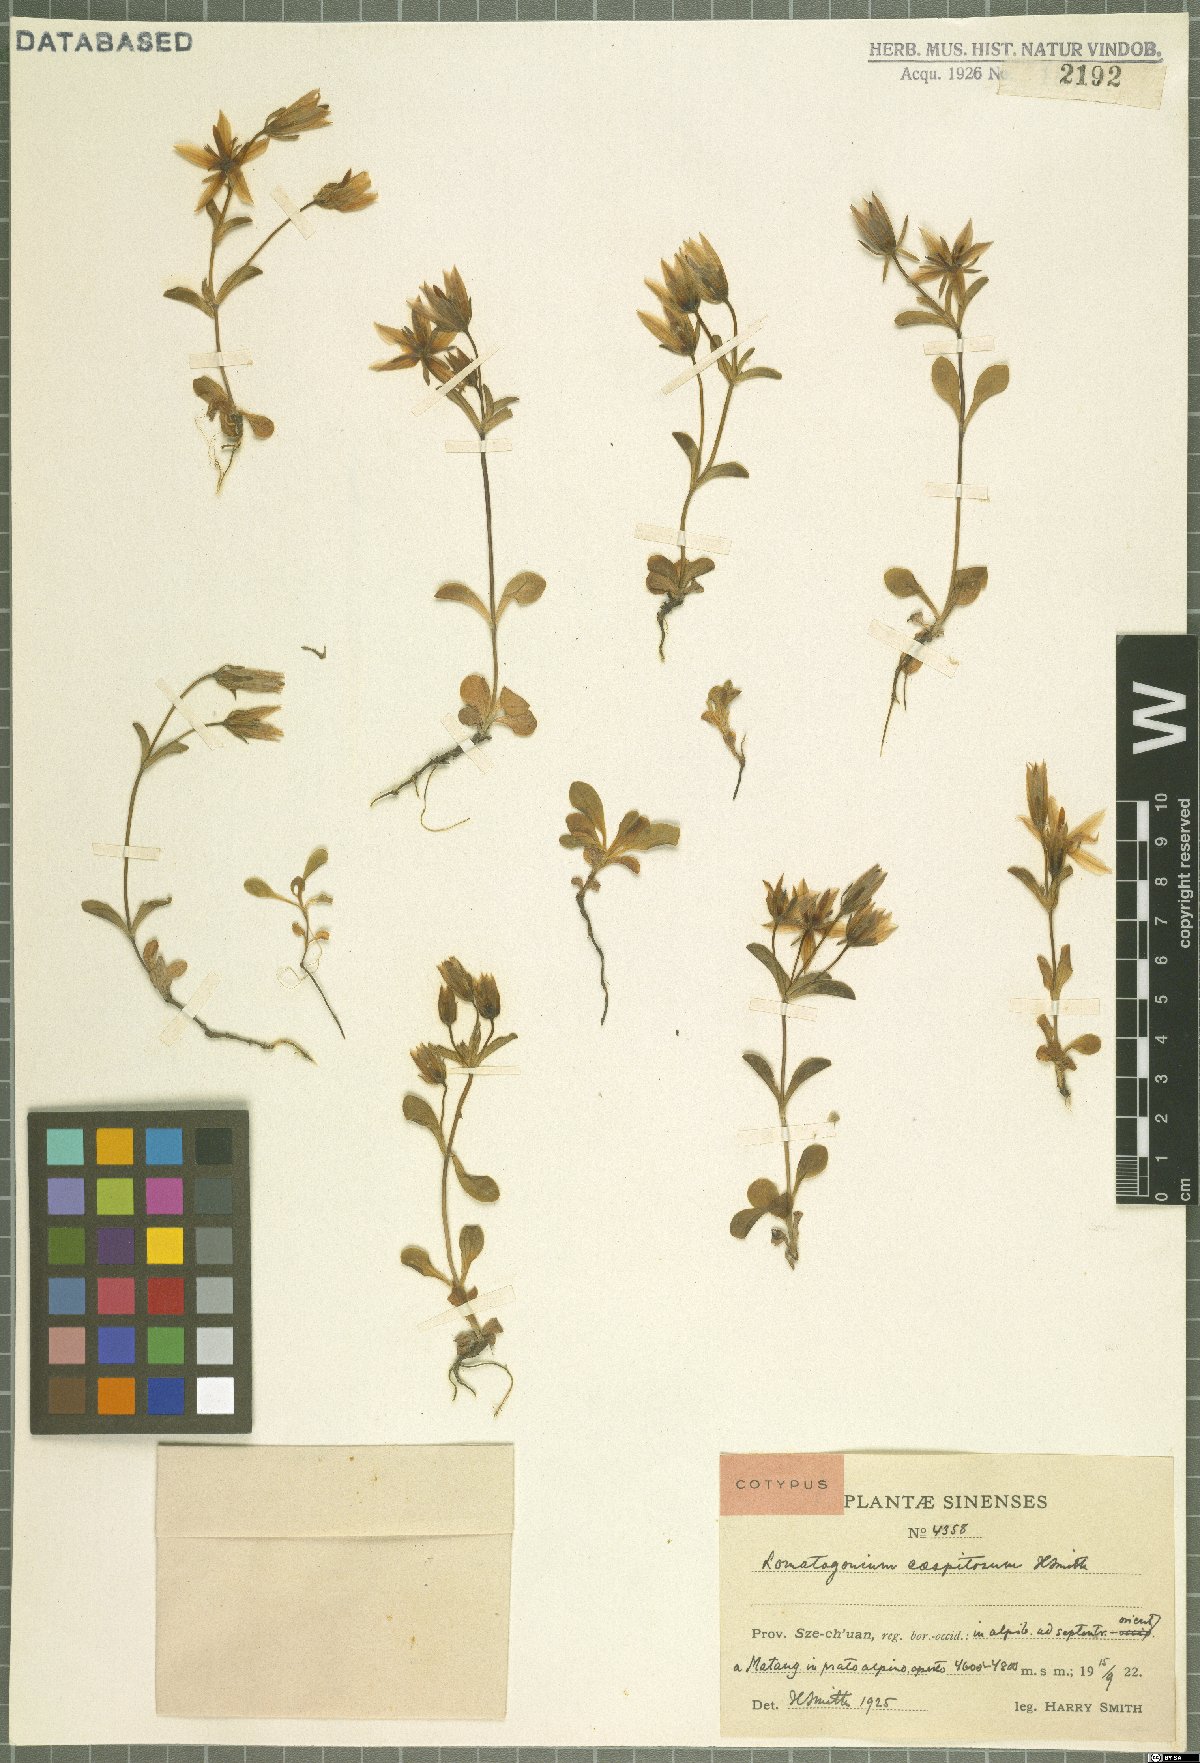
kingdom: Plantae
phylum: Tracheophyta
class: Magnoliopsida
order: Gentianales
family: Gentianaceae
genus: Lomatogonium
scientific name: Lomatogonium perenne
